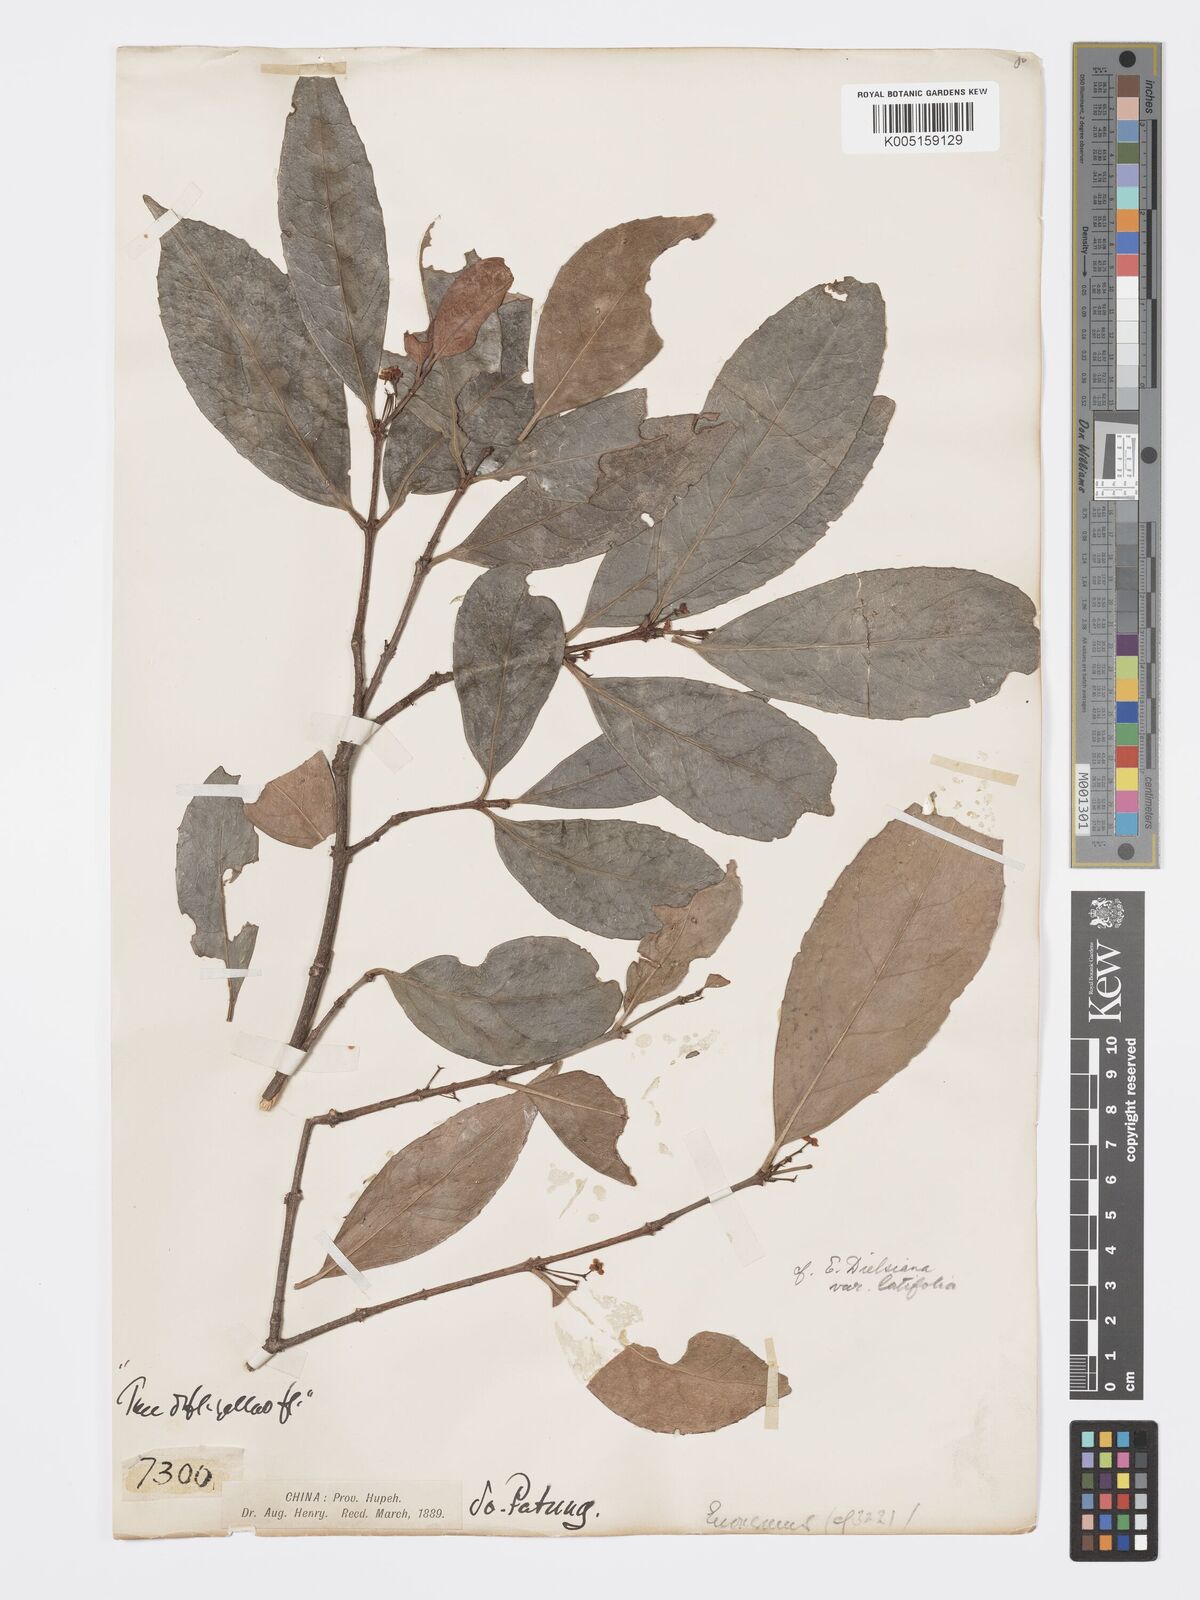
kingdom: Plantae
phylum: Tracheophyta
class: Magnoliopsida
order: Celastrales
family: Celastraceae
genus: Euonymus
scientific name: Euonymus dielsianus
